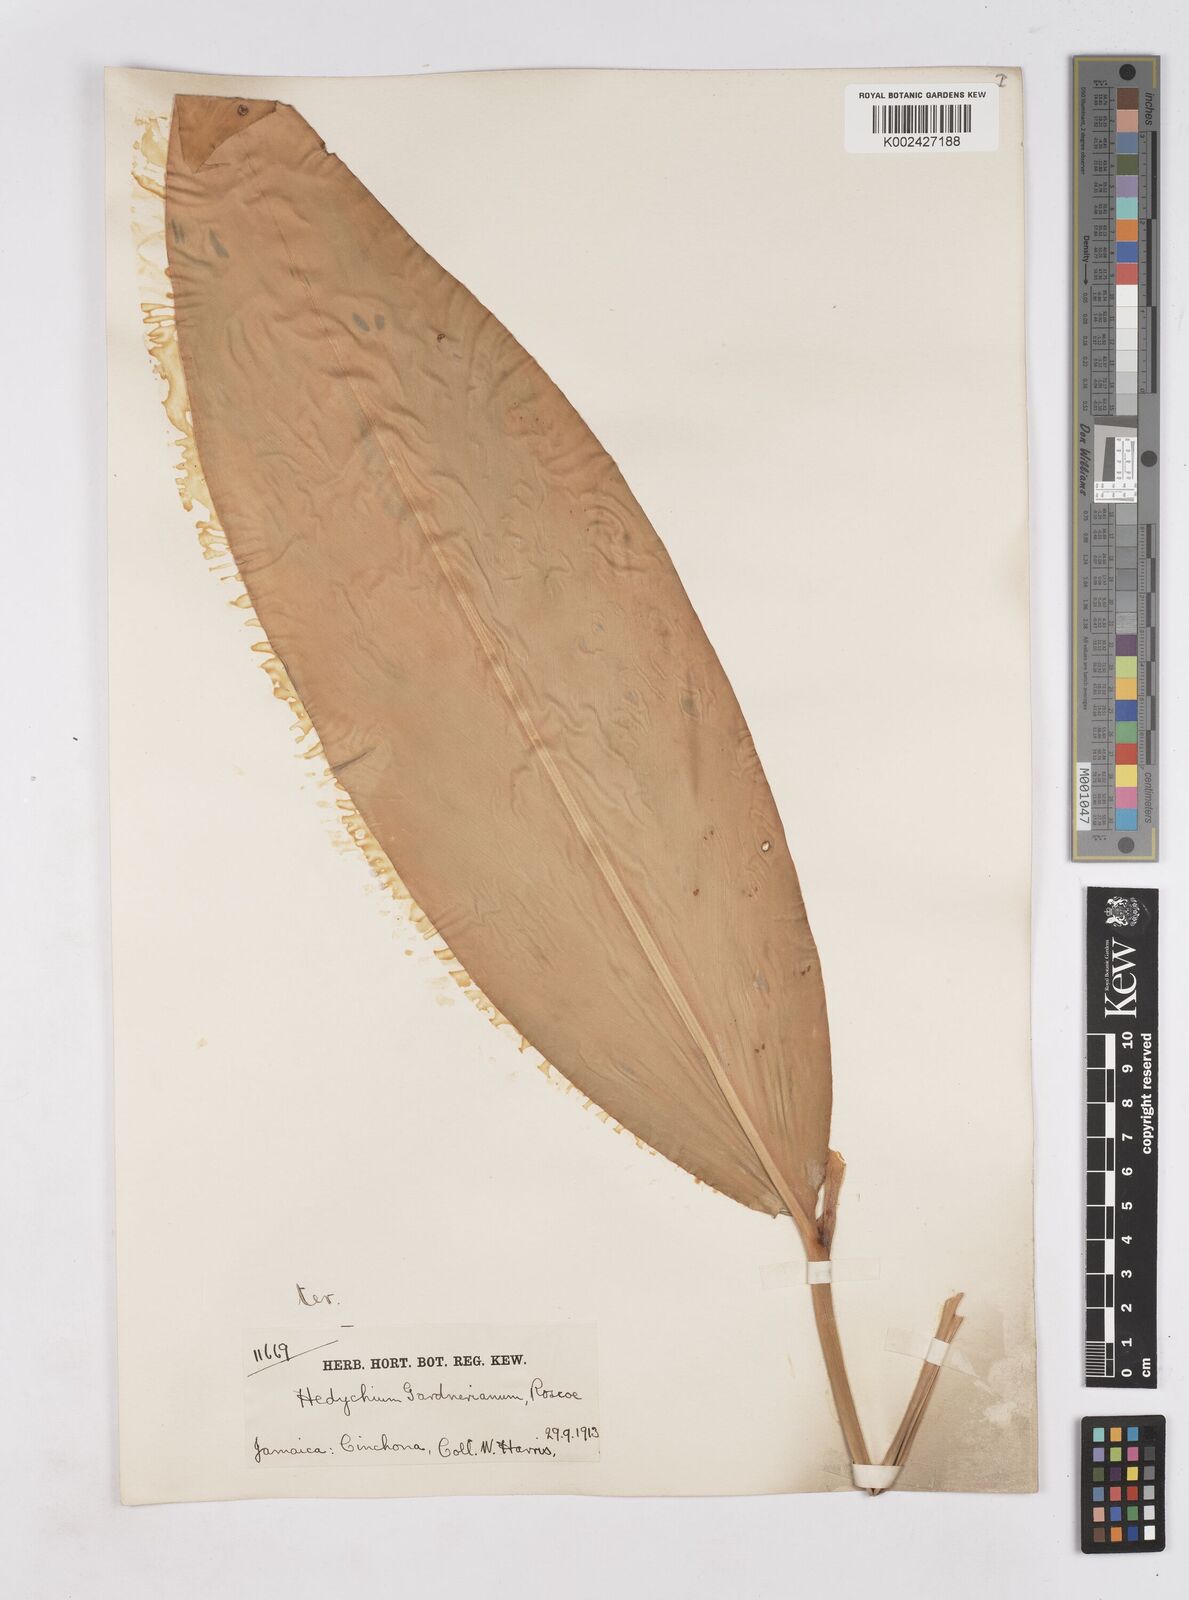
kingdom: Plantae
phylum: Tracheophyta
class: Liliopsida
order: Zingiberales
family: Zingiberaceae
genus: Hedychium
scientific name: Hedychium gardnerianum
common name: Himalayan ginger
